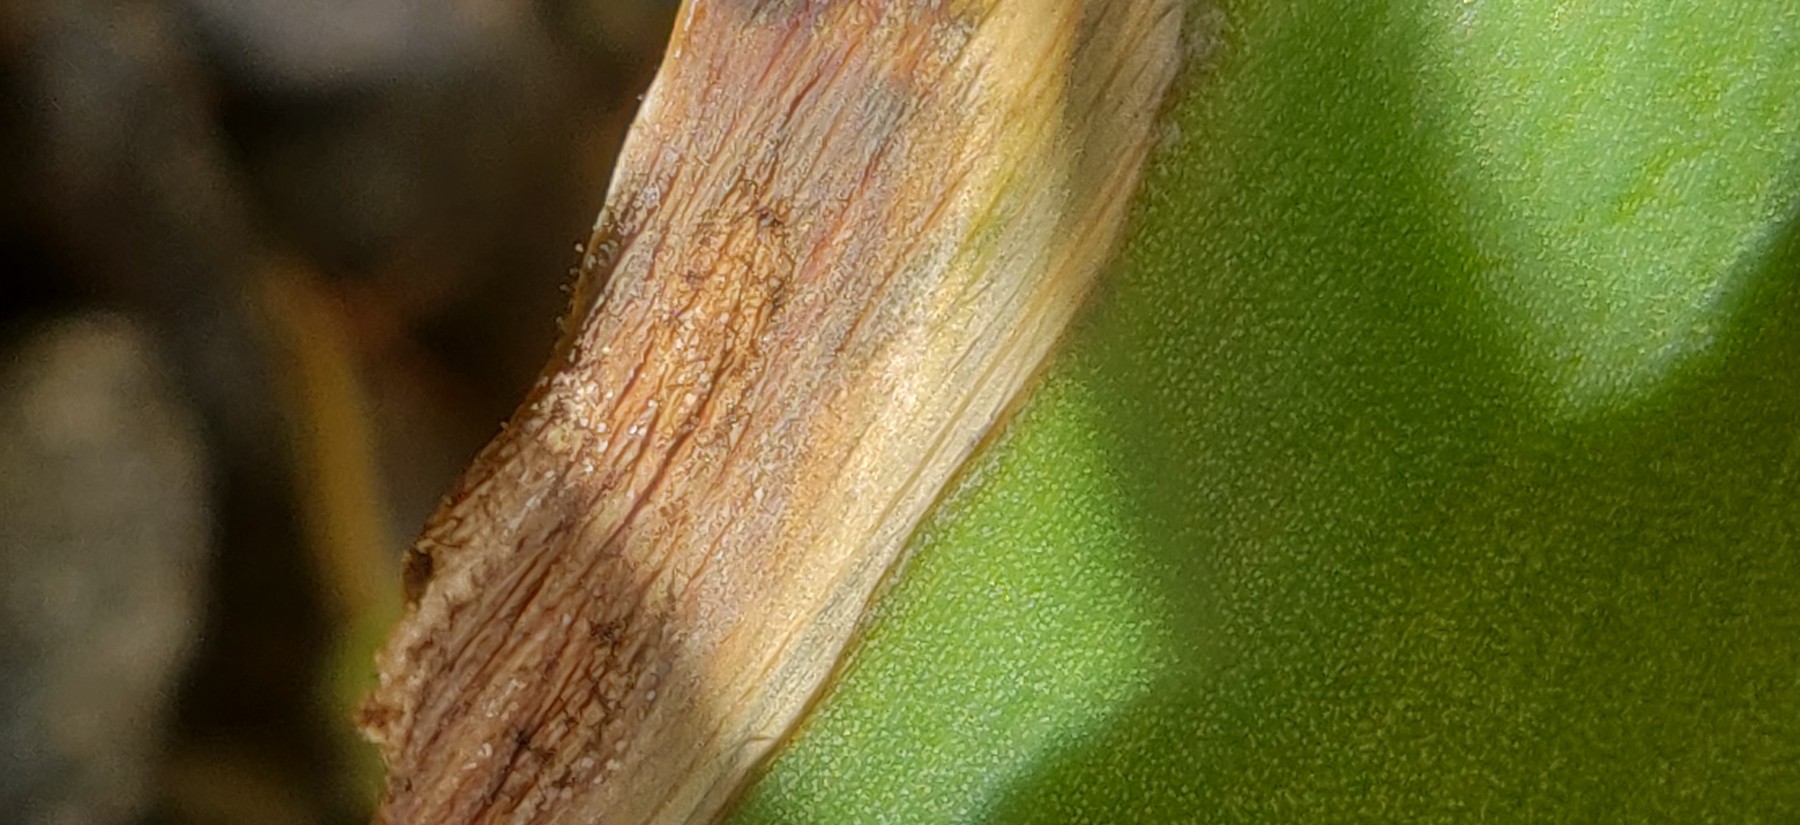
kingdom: Fungi
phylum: Ascomycota
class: Leotiomycetes
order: Helotiales
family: Sclerotiniaceae
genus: Botrytis
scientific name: Botrytis tulipae
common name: Tulip fire
